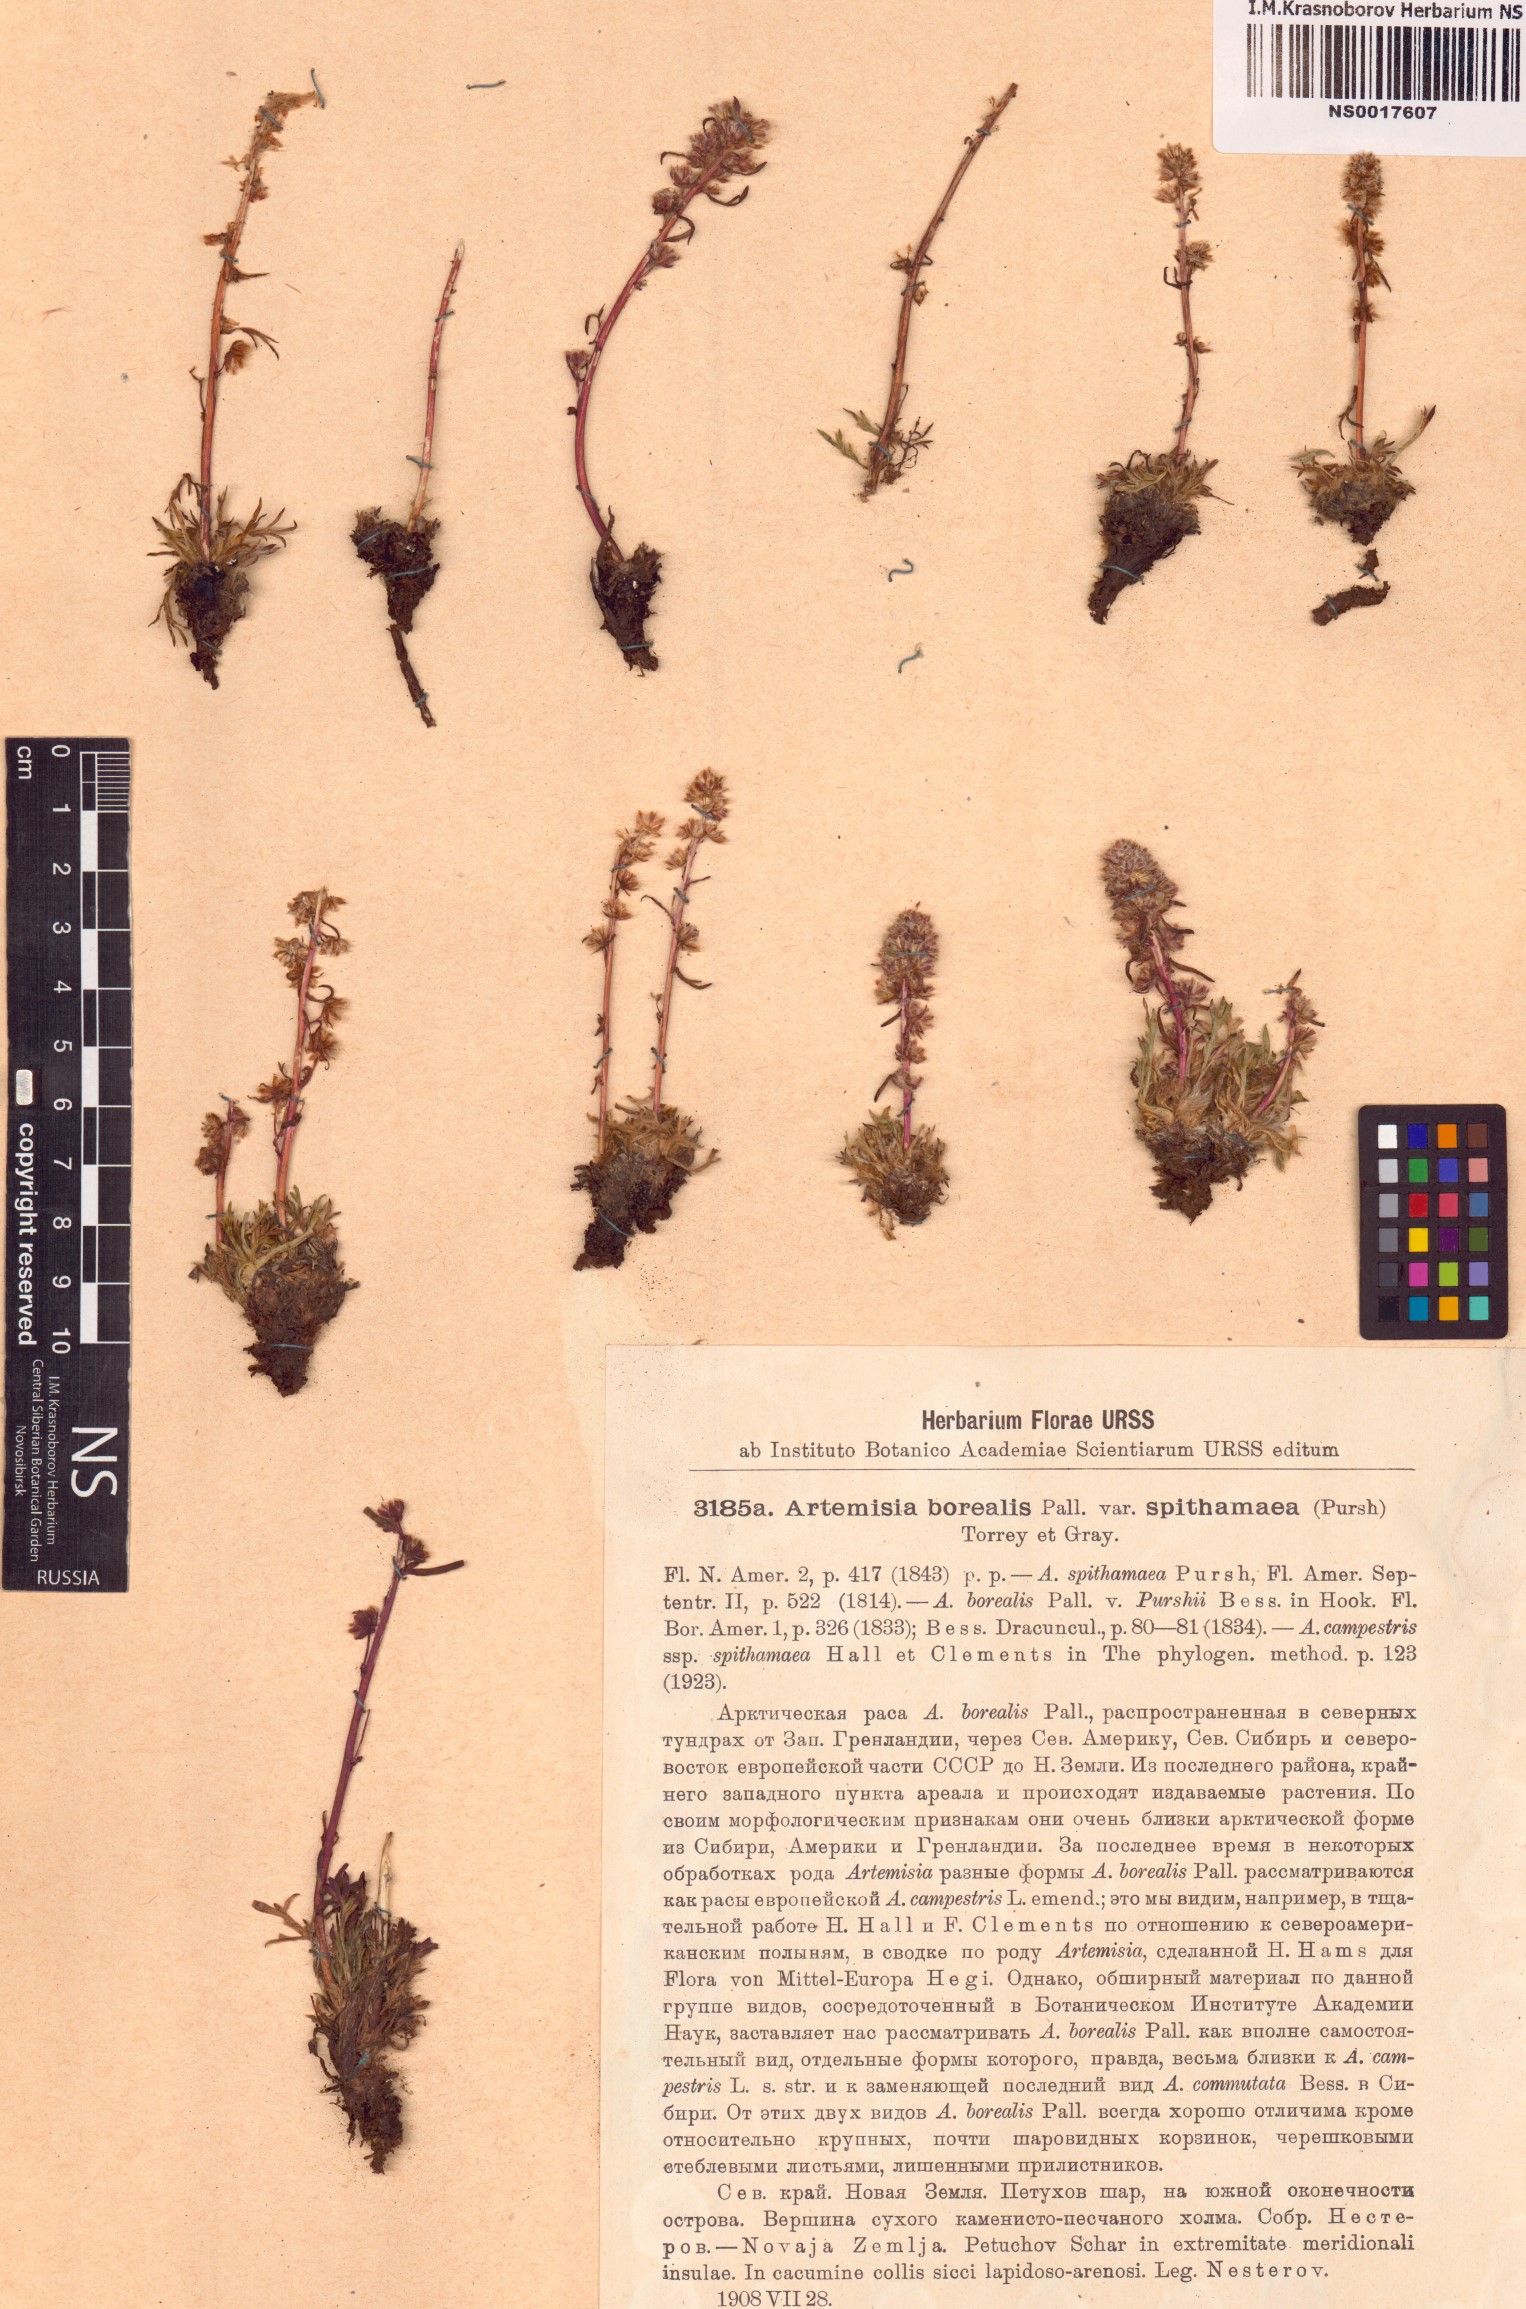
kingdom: Plantae
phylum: Tracheophyta
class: Magnoliopsida
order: Asterales
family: Asteraceae
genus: Artemisia
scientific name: Artemisia borealis
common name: Boreal sage
